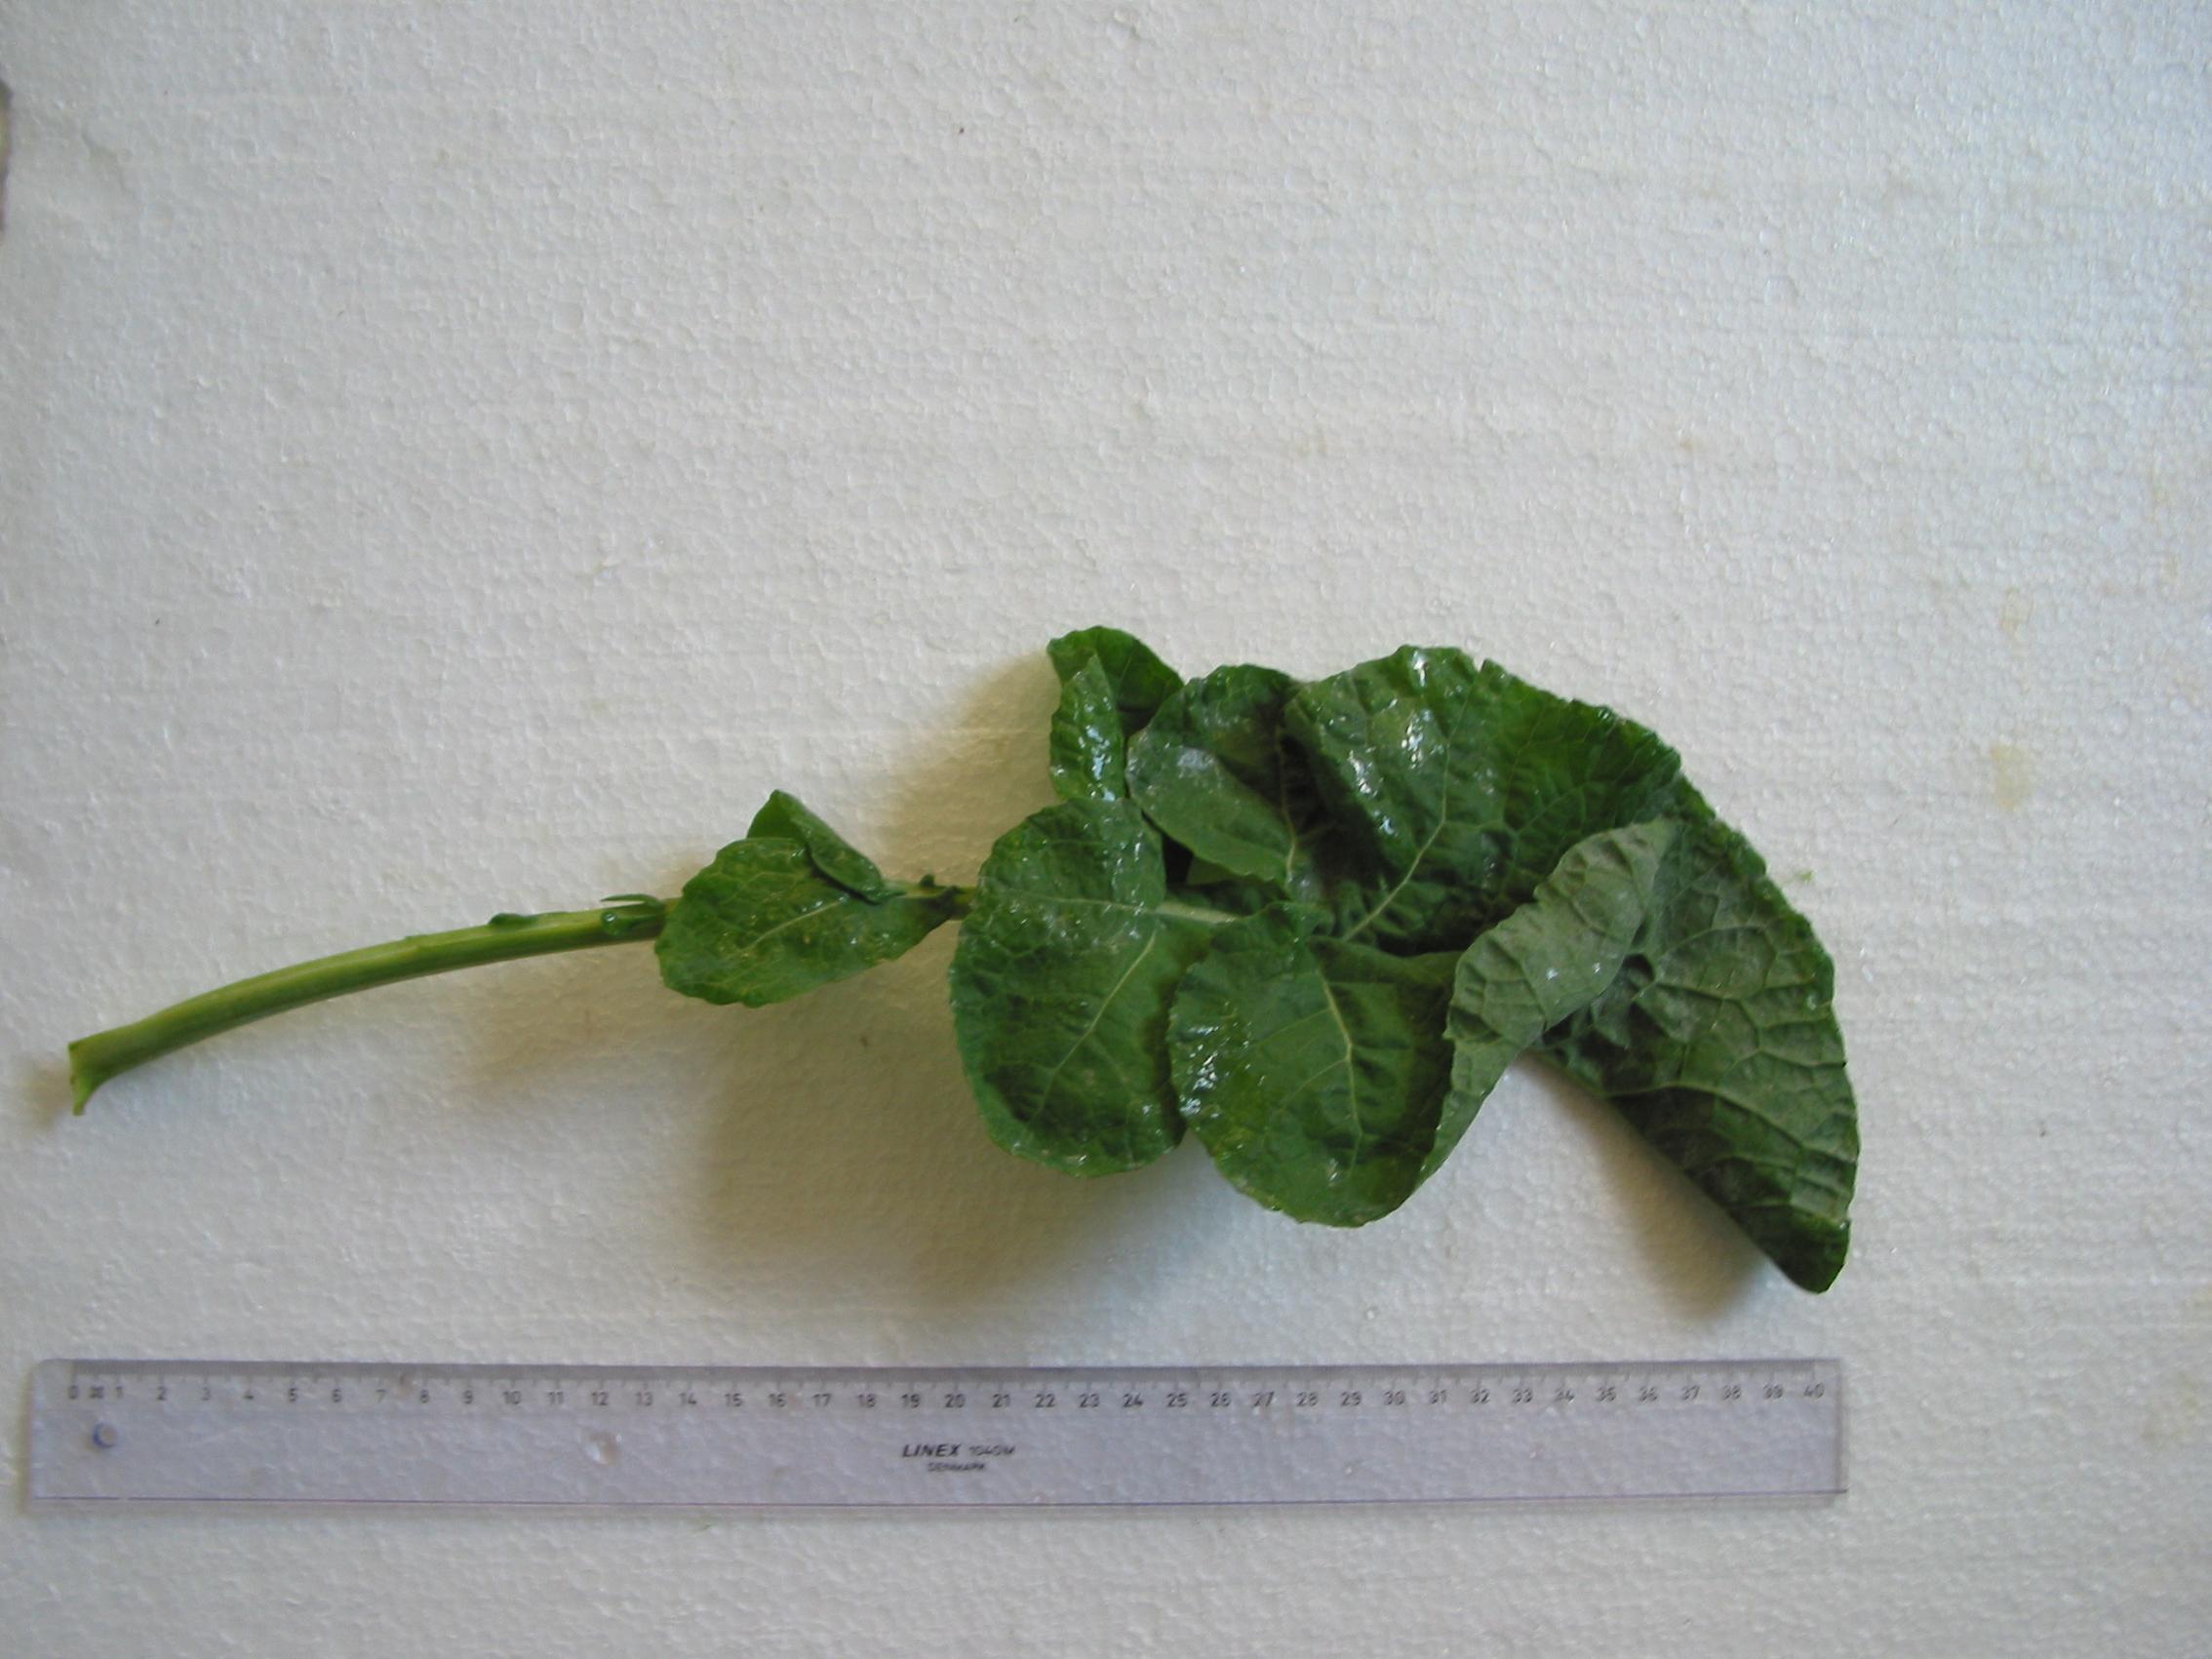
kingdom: Plantae
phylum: Tracheophyta
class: Magnoliopsida
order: Brassicales
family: Brassicaceae
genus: Brassica
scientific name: Brassica napus
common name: Rape
